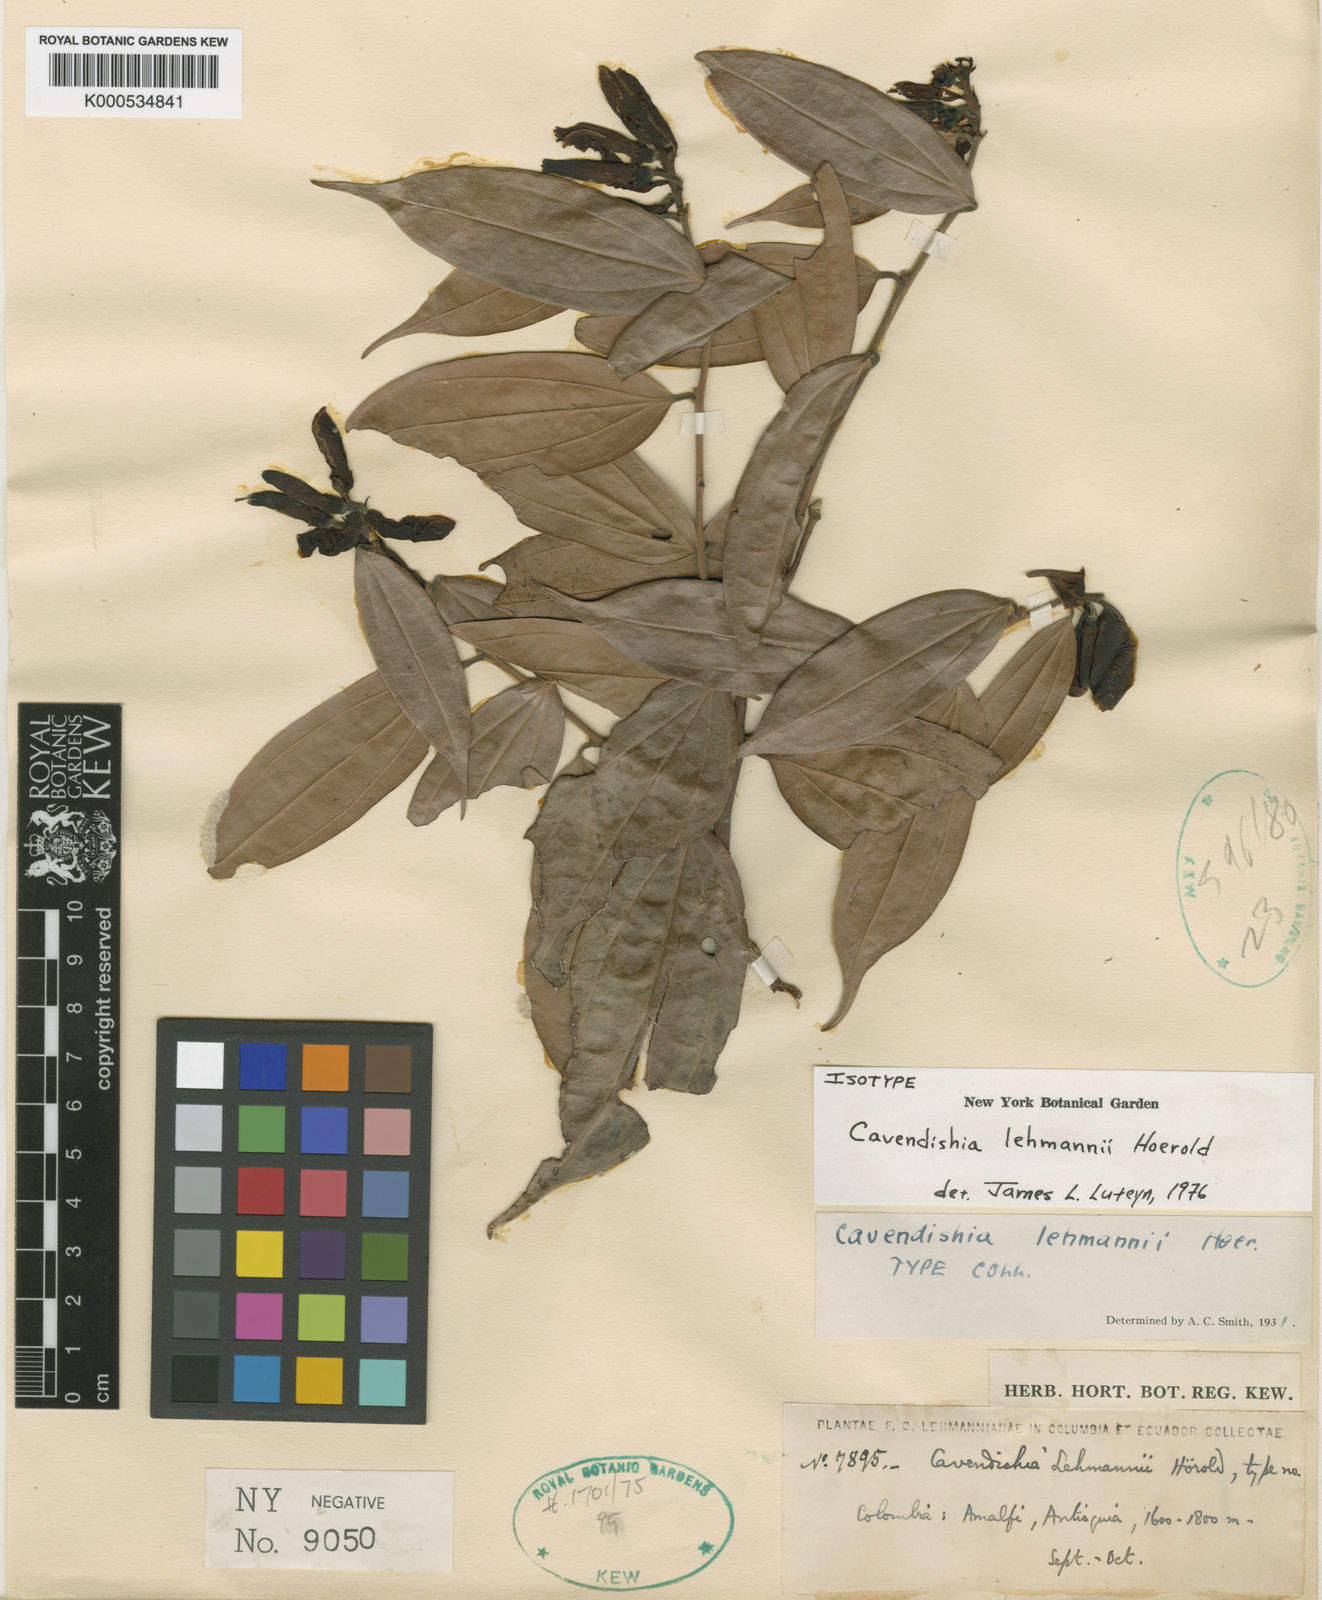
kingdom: Plantae
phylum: Tracheophyta
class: Magnoliopsida
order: Ericales
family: Ericaceae
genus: Cavendishia
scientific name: Cavendishia bracteata
